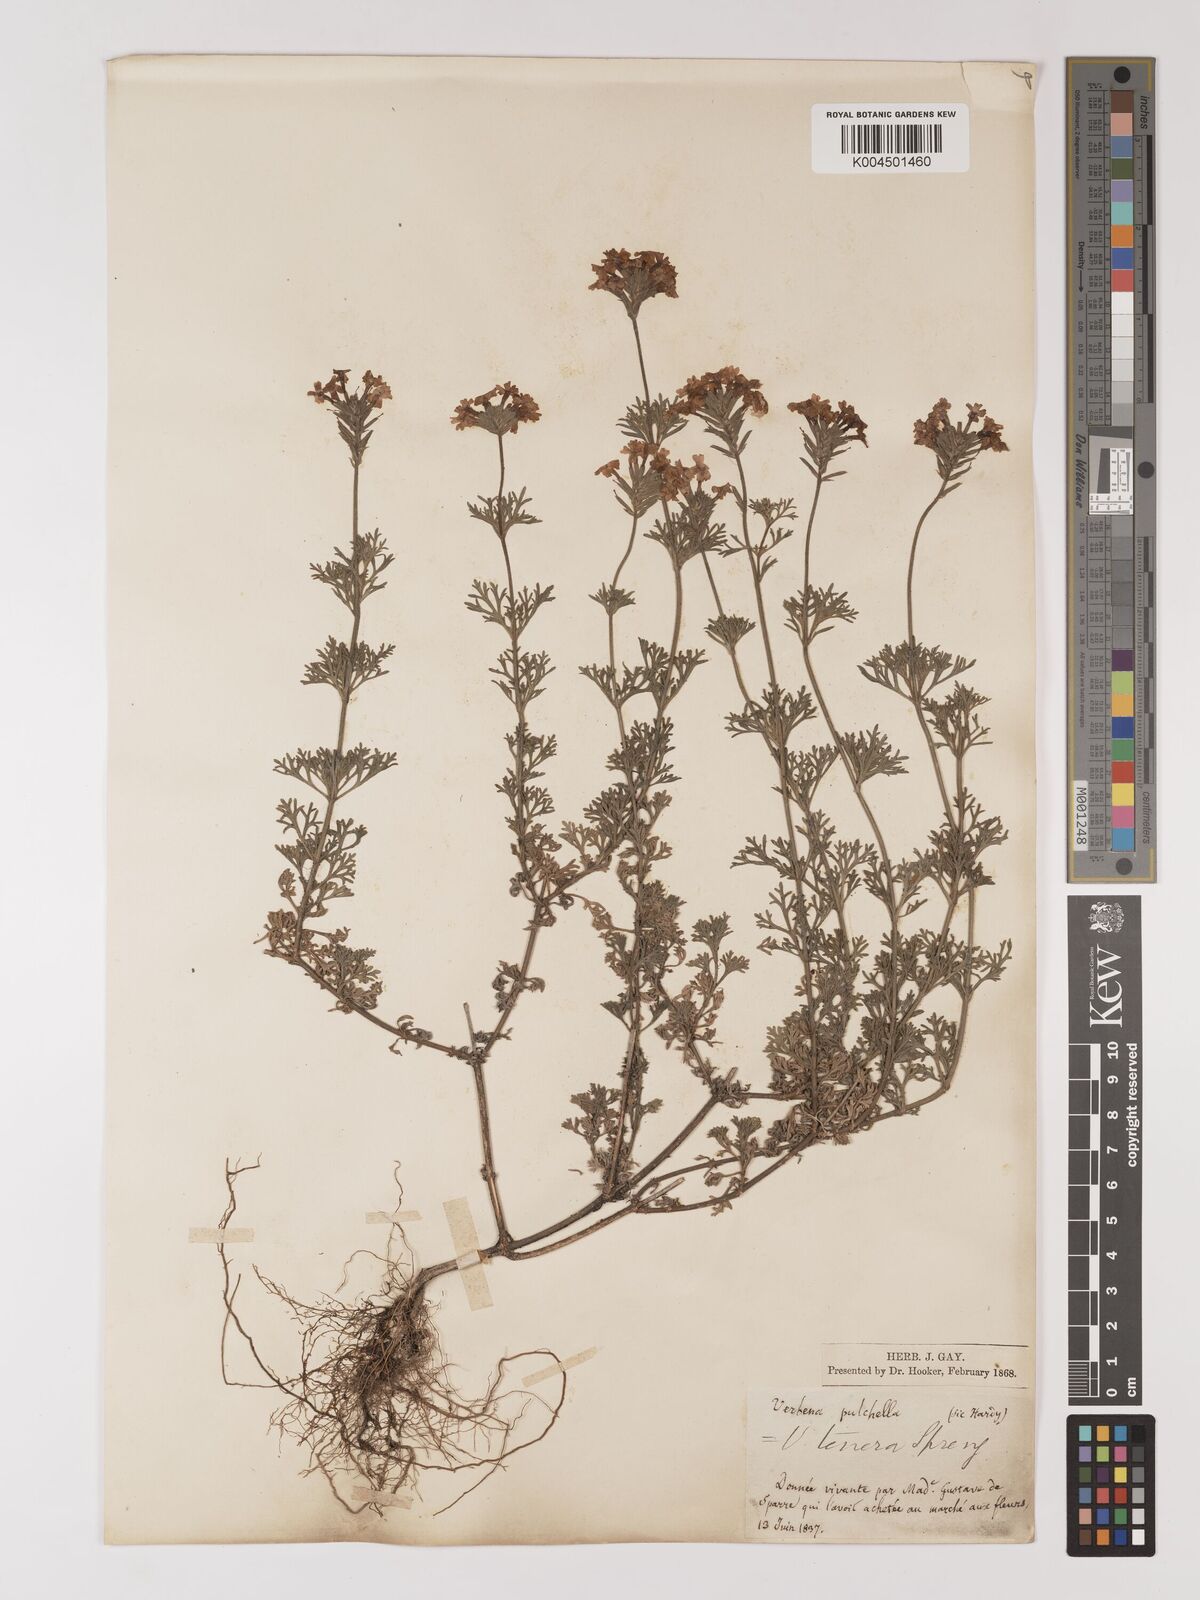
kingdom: Plantae
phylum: Tracheophyta
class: Magnoliopsida
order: Lamiales
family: Verbenaceae
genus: Verbena
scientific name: Verbena tenera
